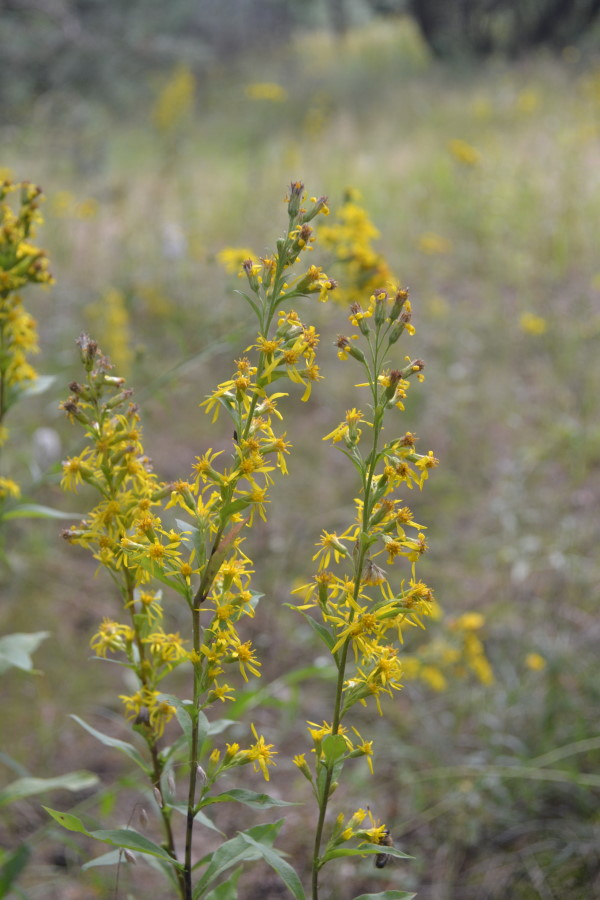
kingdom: Plantae
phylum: Tracheophyta
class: Magnoliopsida
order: Asterales
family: Asteraceae
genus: Solidago
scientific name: Solidago virgaurea
